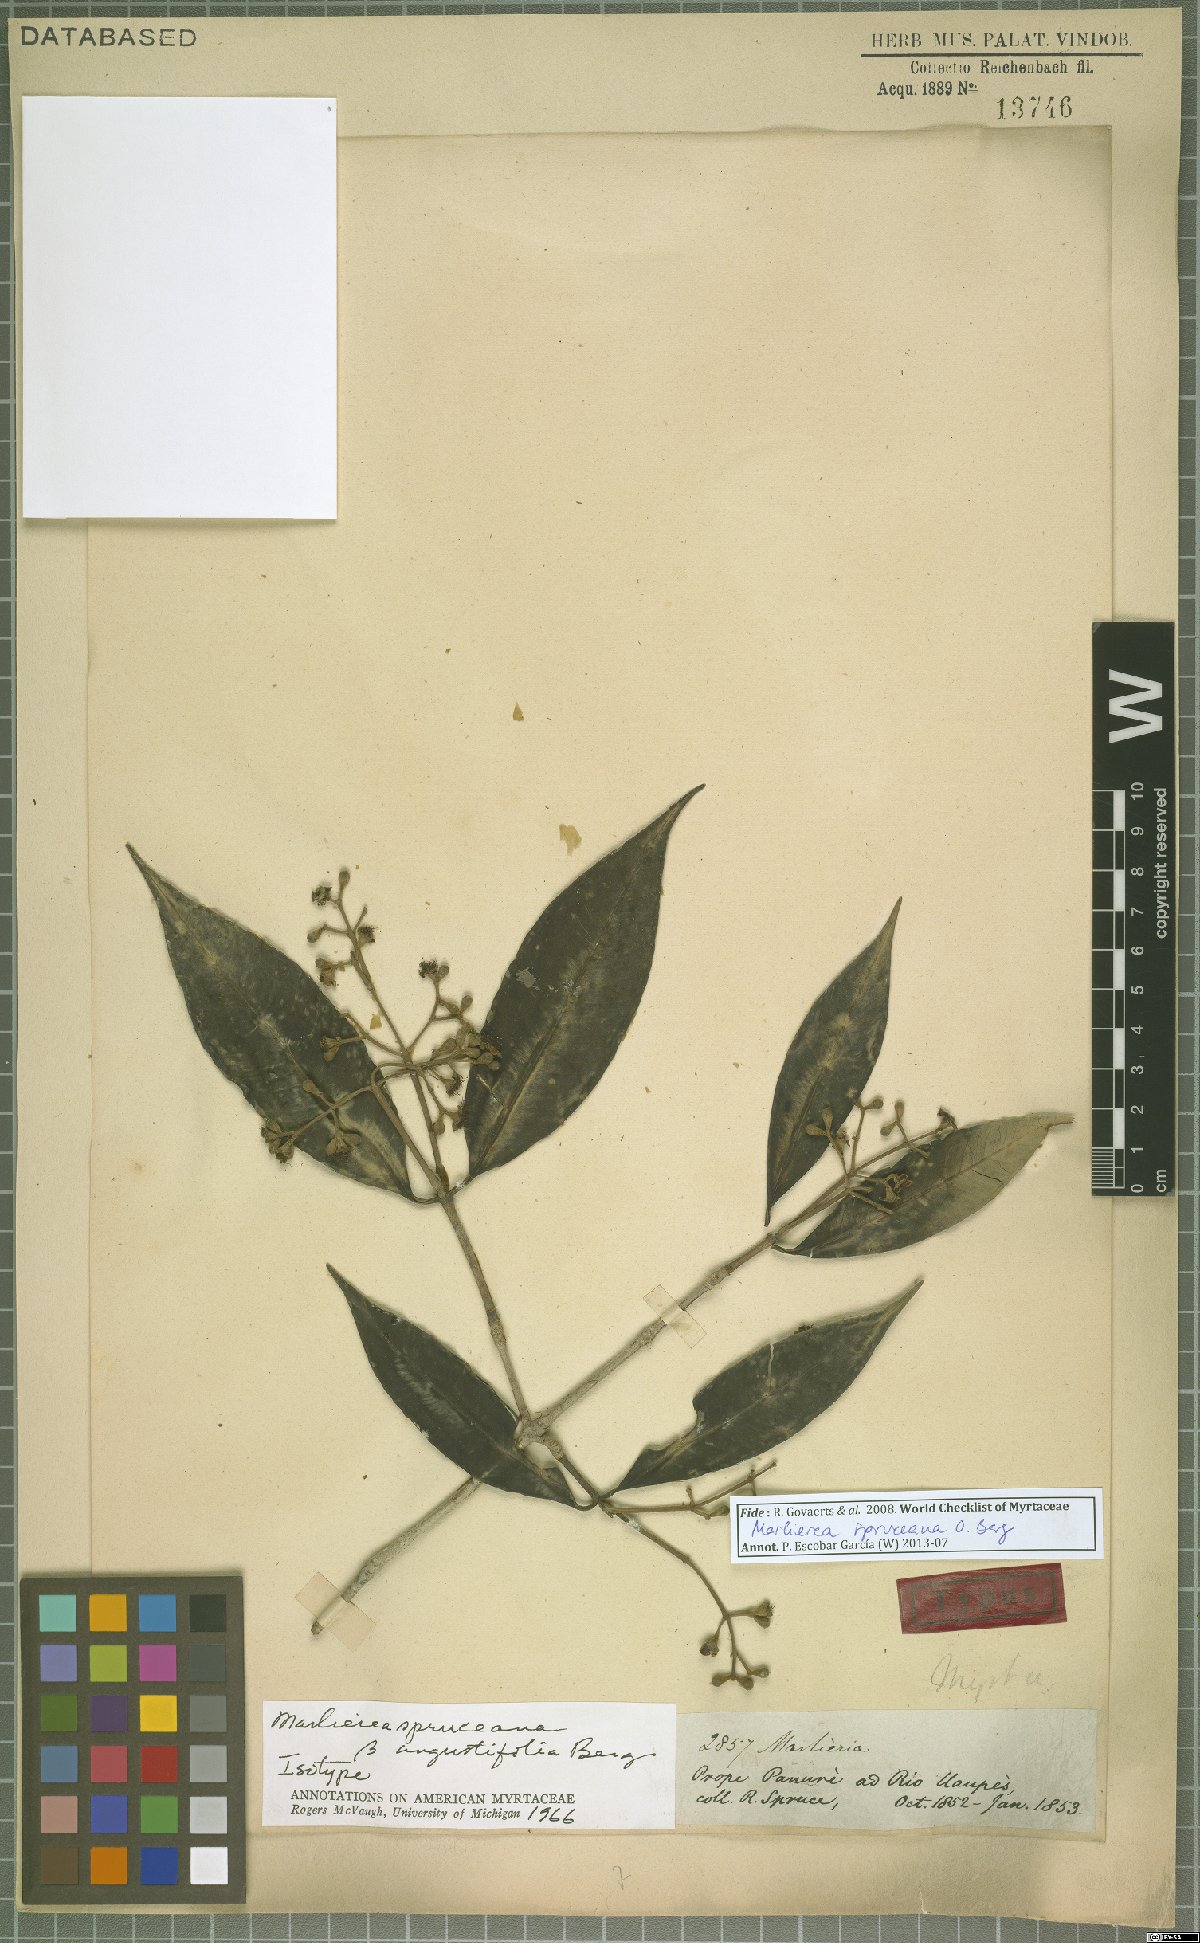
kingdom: Plantae
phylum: Tracheophyta
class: Magnoliopsida
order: Myrtales
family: Myrtaceae
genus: Myrcia
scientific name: Myrcia argentigemma
